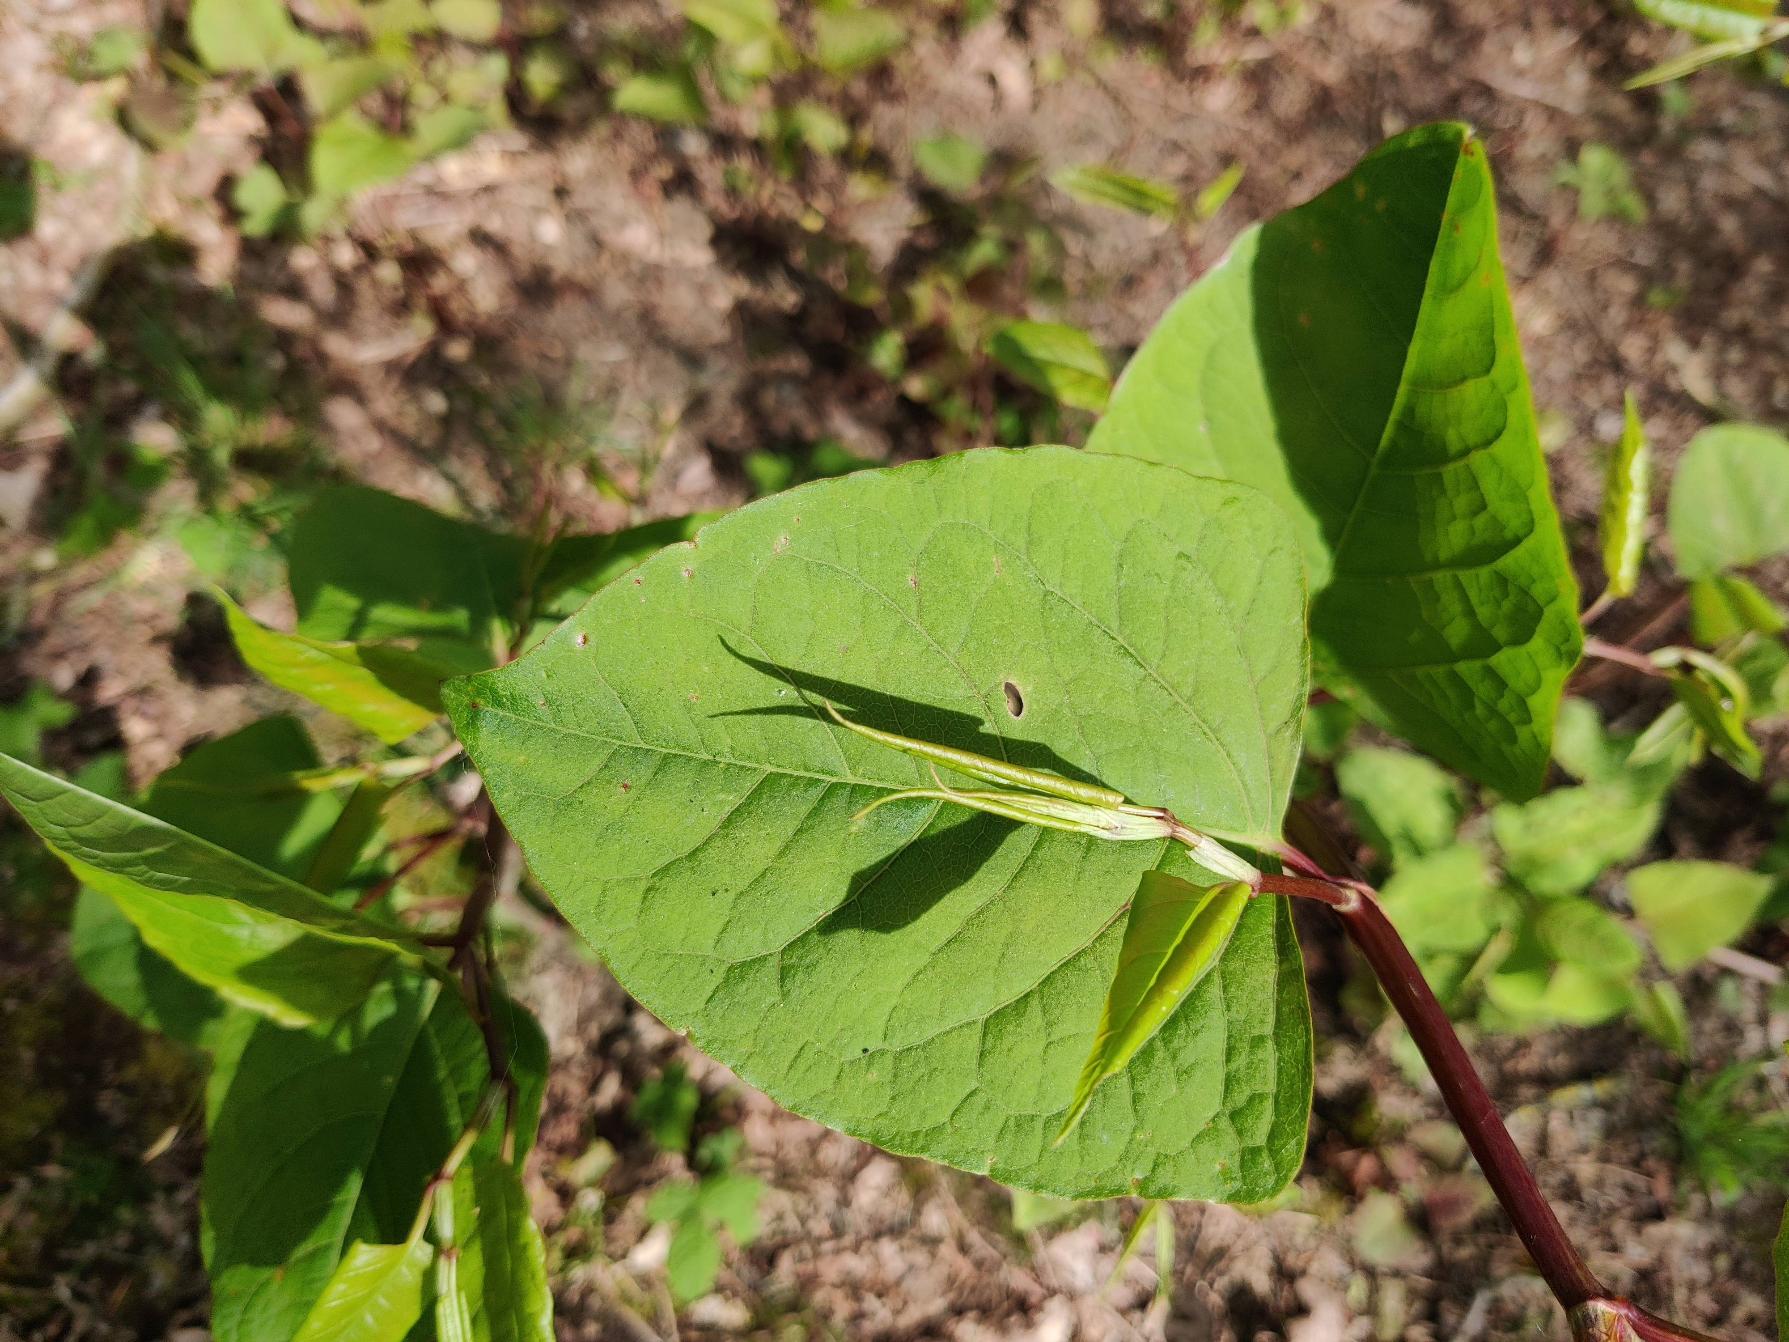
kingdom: Plantae
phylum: Tracheophyta
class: Magnoliopsida
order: Caryophyllales
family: Polygonaceae
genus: Reynoutria
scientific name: Reynoutria japonica
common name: Japan-pileurt
